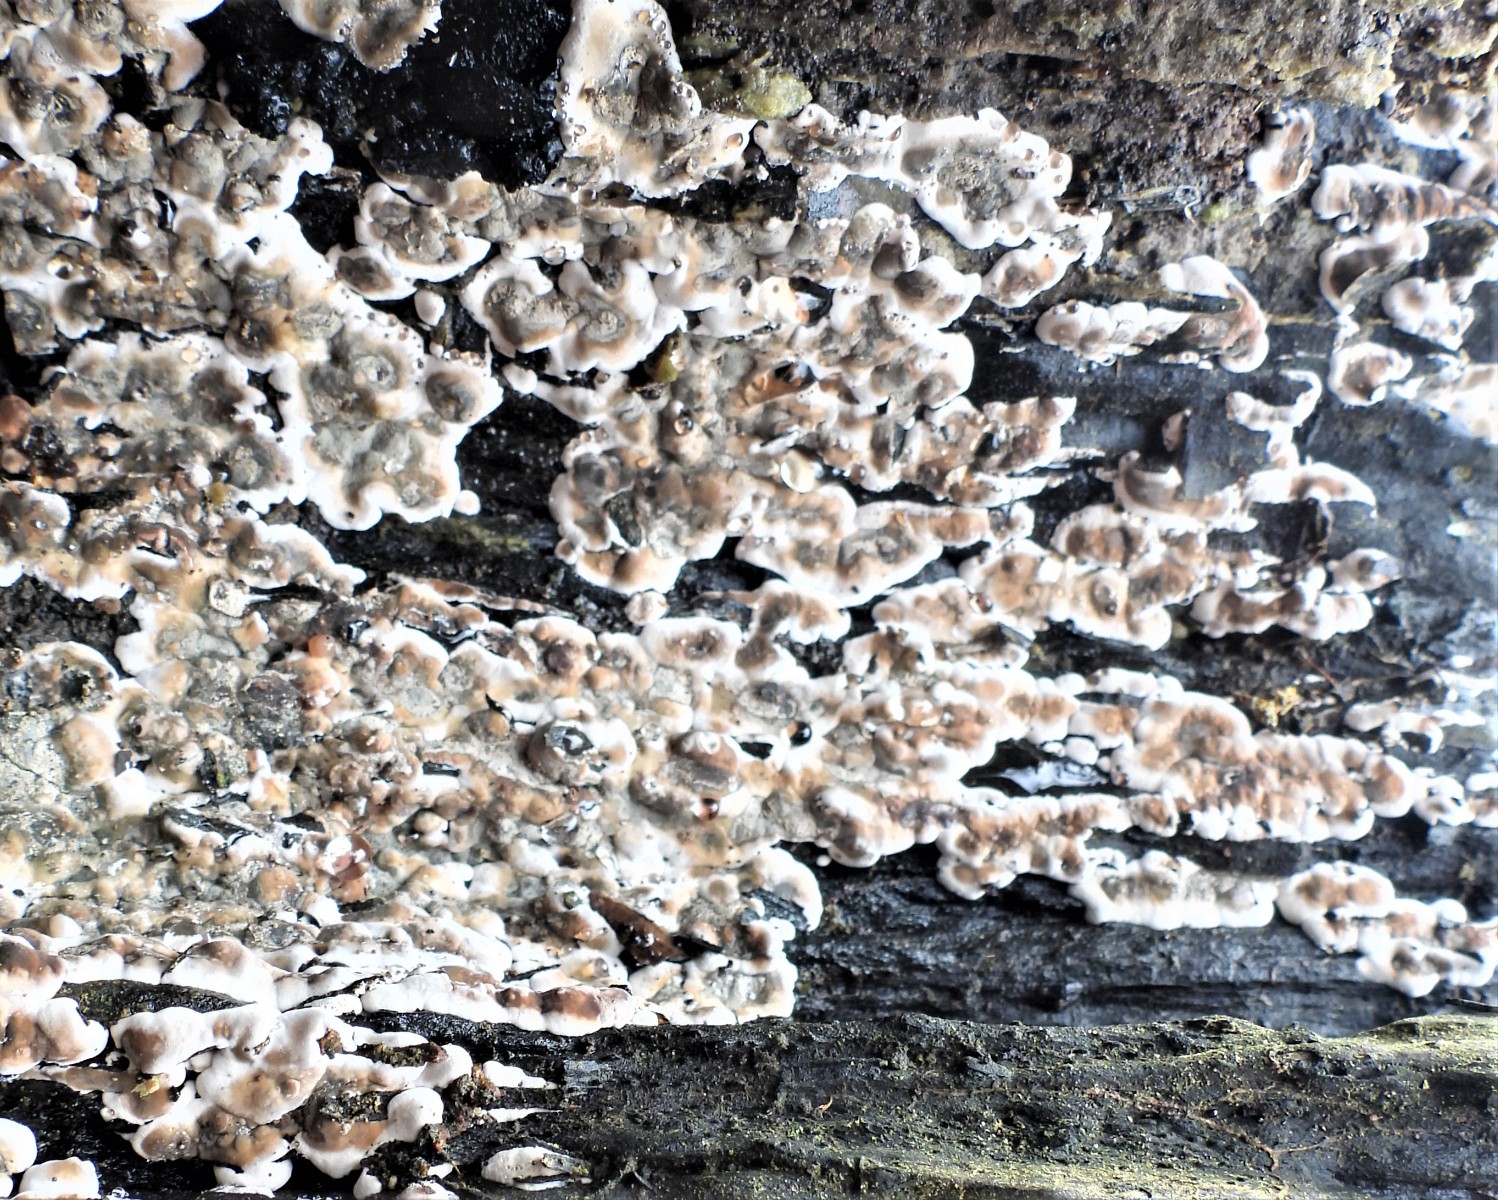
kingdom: Fungi
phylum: Ascomycota
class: Sordariomycetes
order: Xylariales
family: Xylariaceae
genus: Kretzschmaria
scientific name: Kretzschmaria deusta
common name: stor kulsvamp
